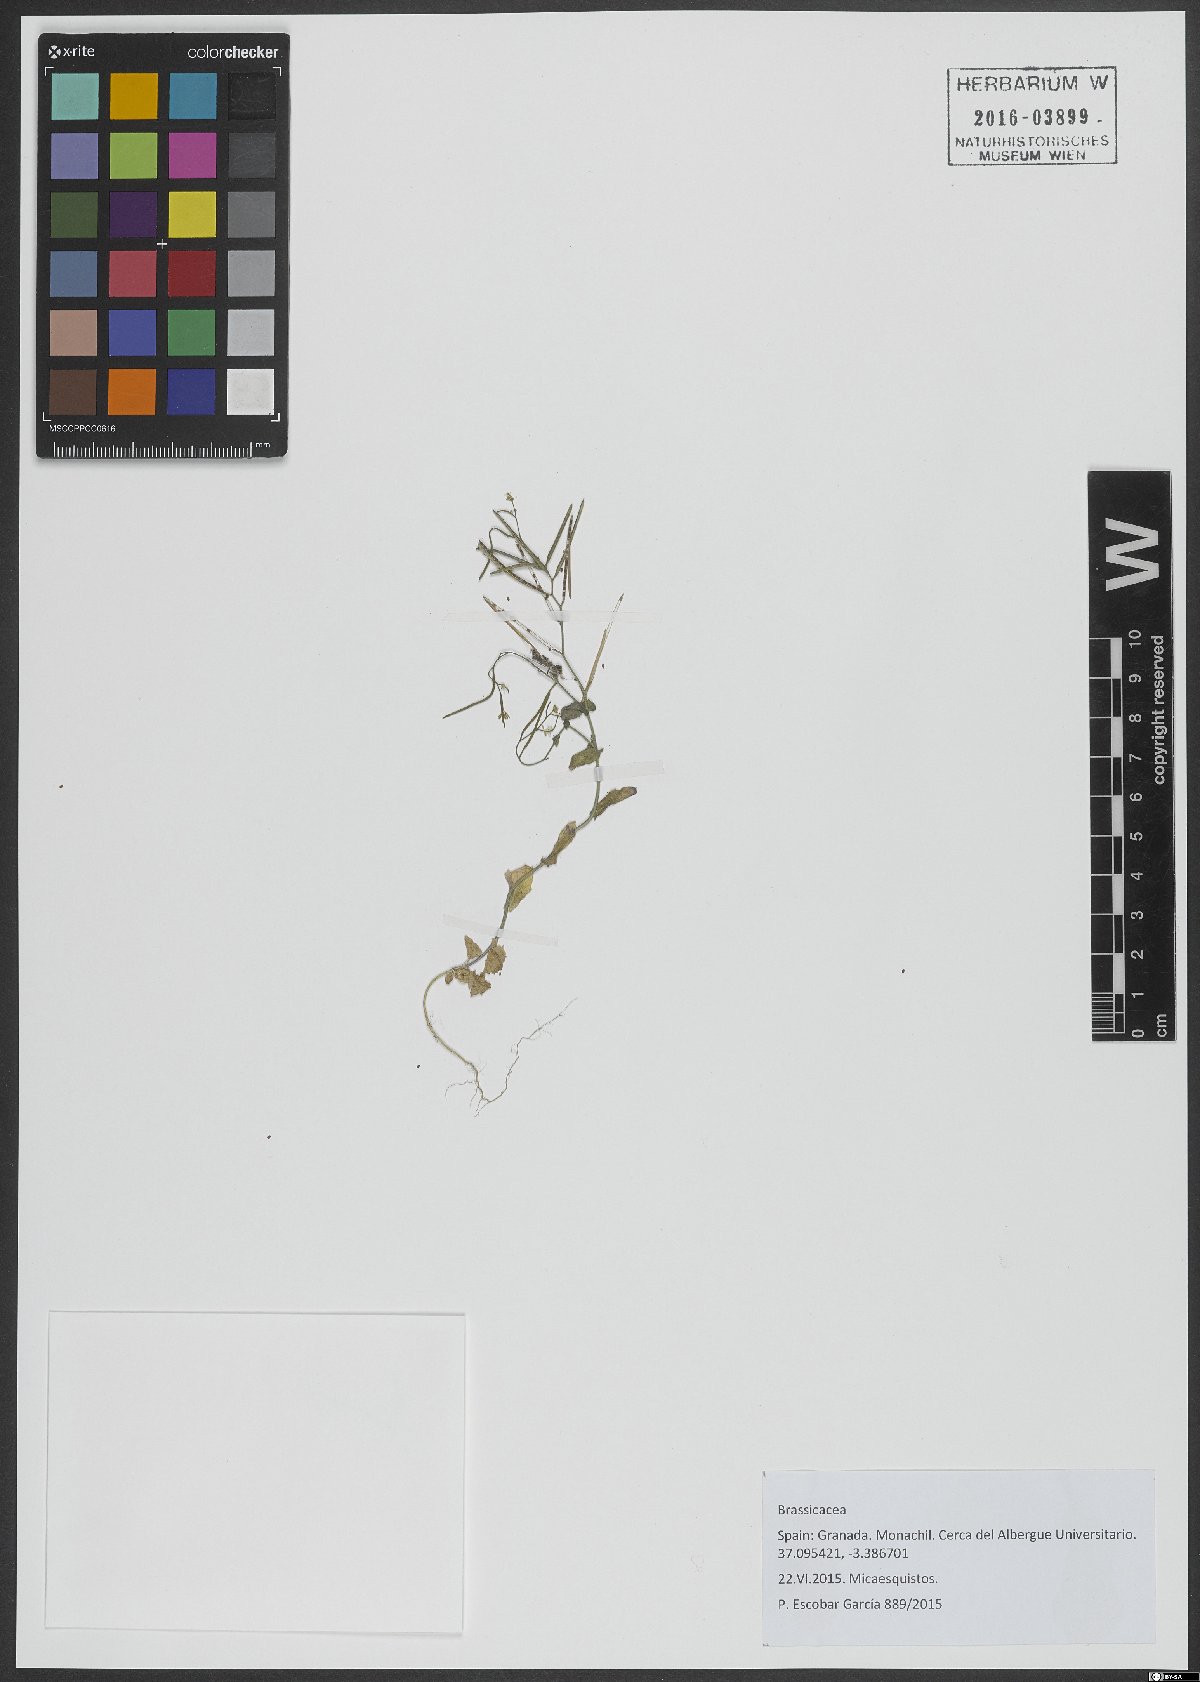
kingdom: Plantae
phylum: Tracheophyta
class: Magnoliopsida
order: Brassicales
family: Brassicaceae
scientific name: Brassicaceae
